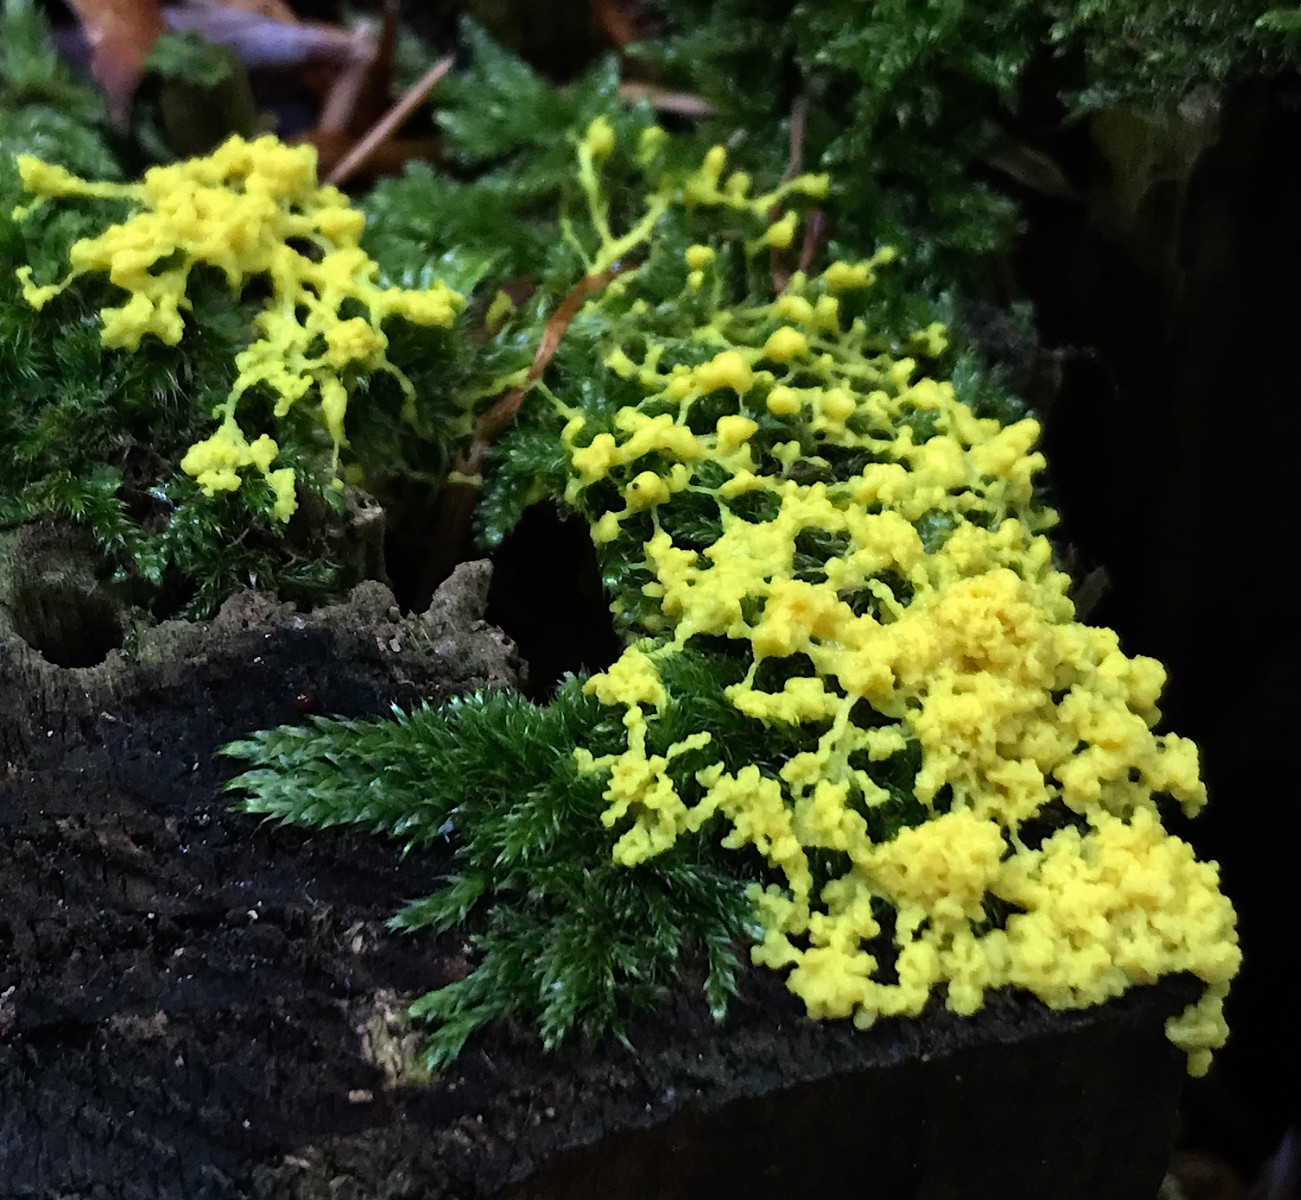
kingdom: Protozoa
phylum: Mycetozoa
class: Myxomycetes
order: Physarales
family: Physaraceae
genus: Fuligo
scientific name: Fuligo septica
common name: gul troldsmør
